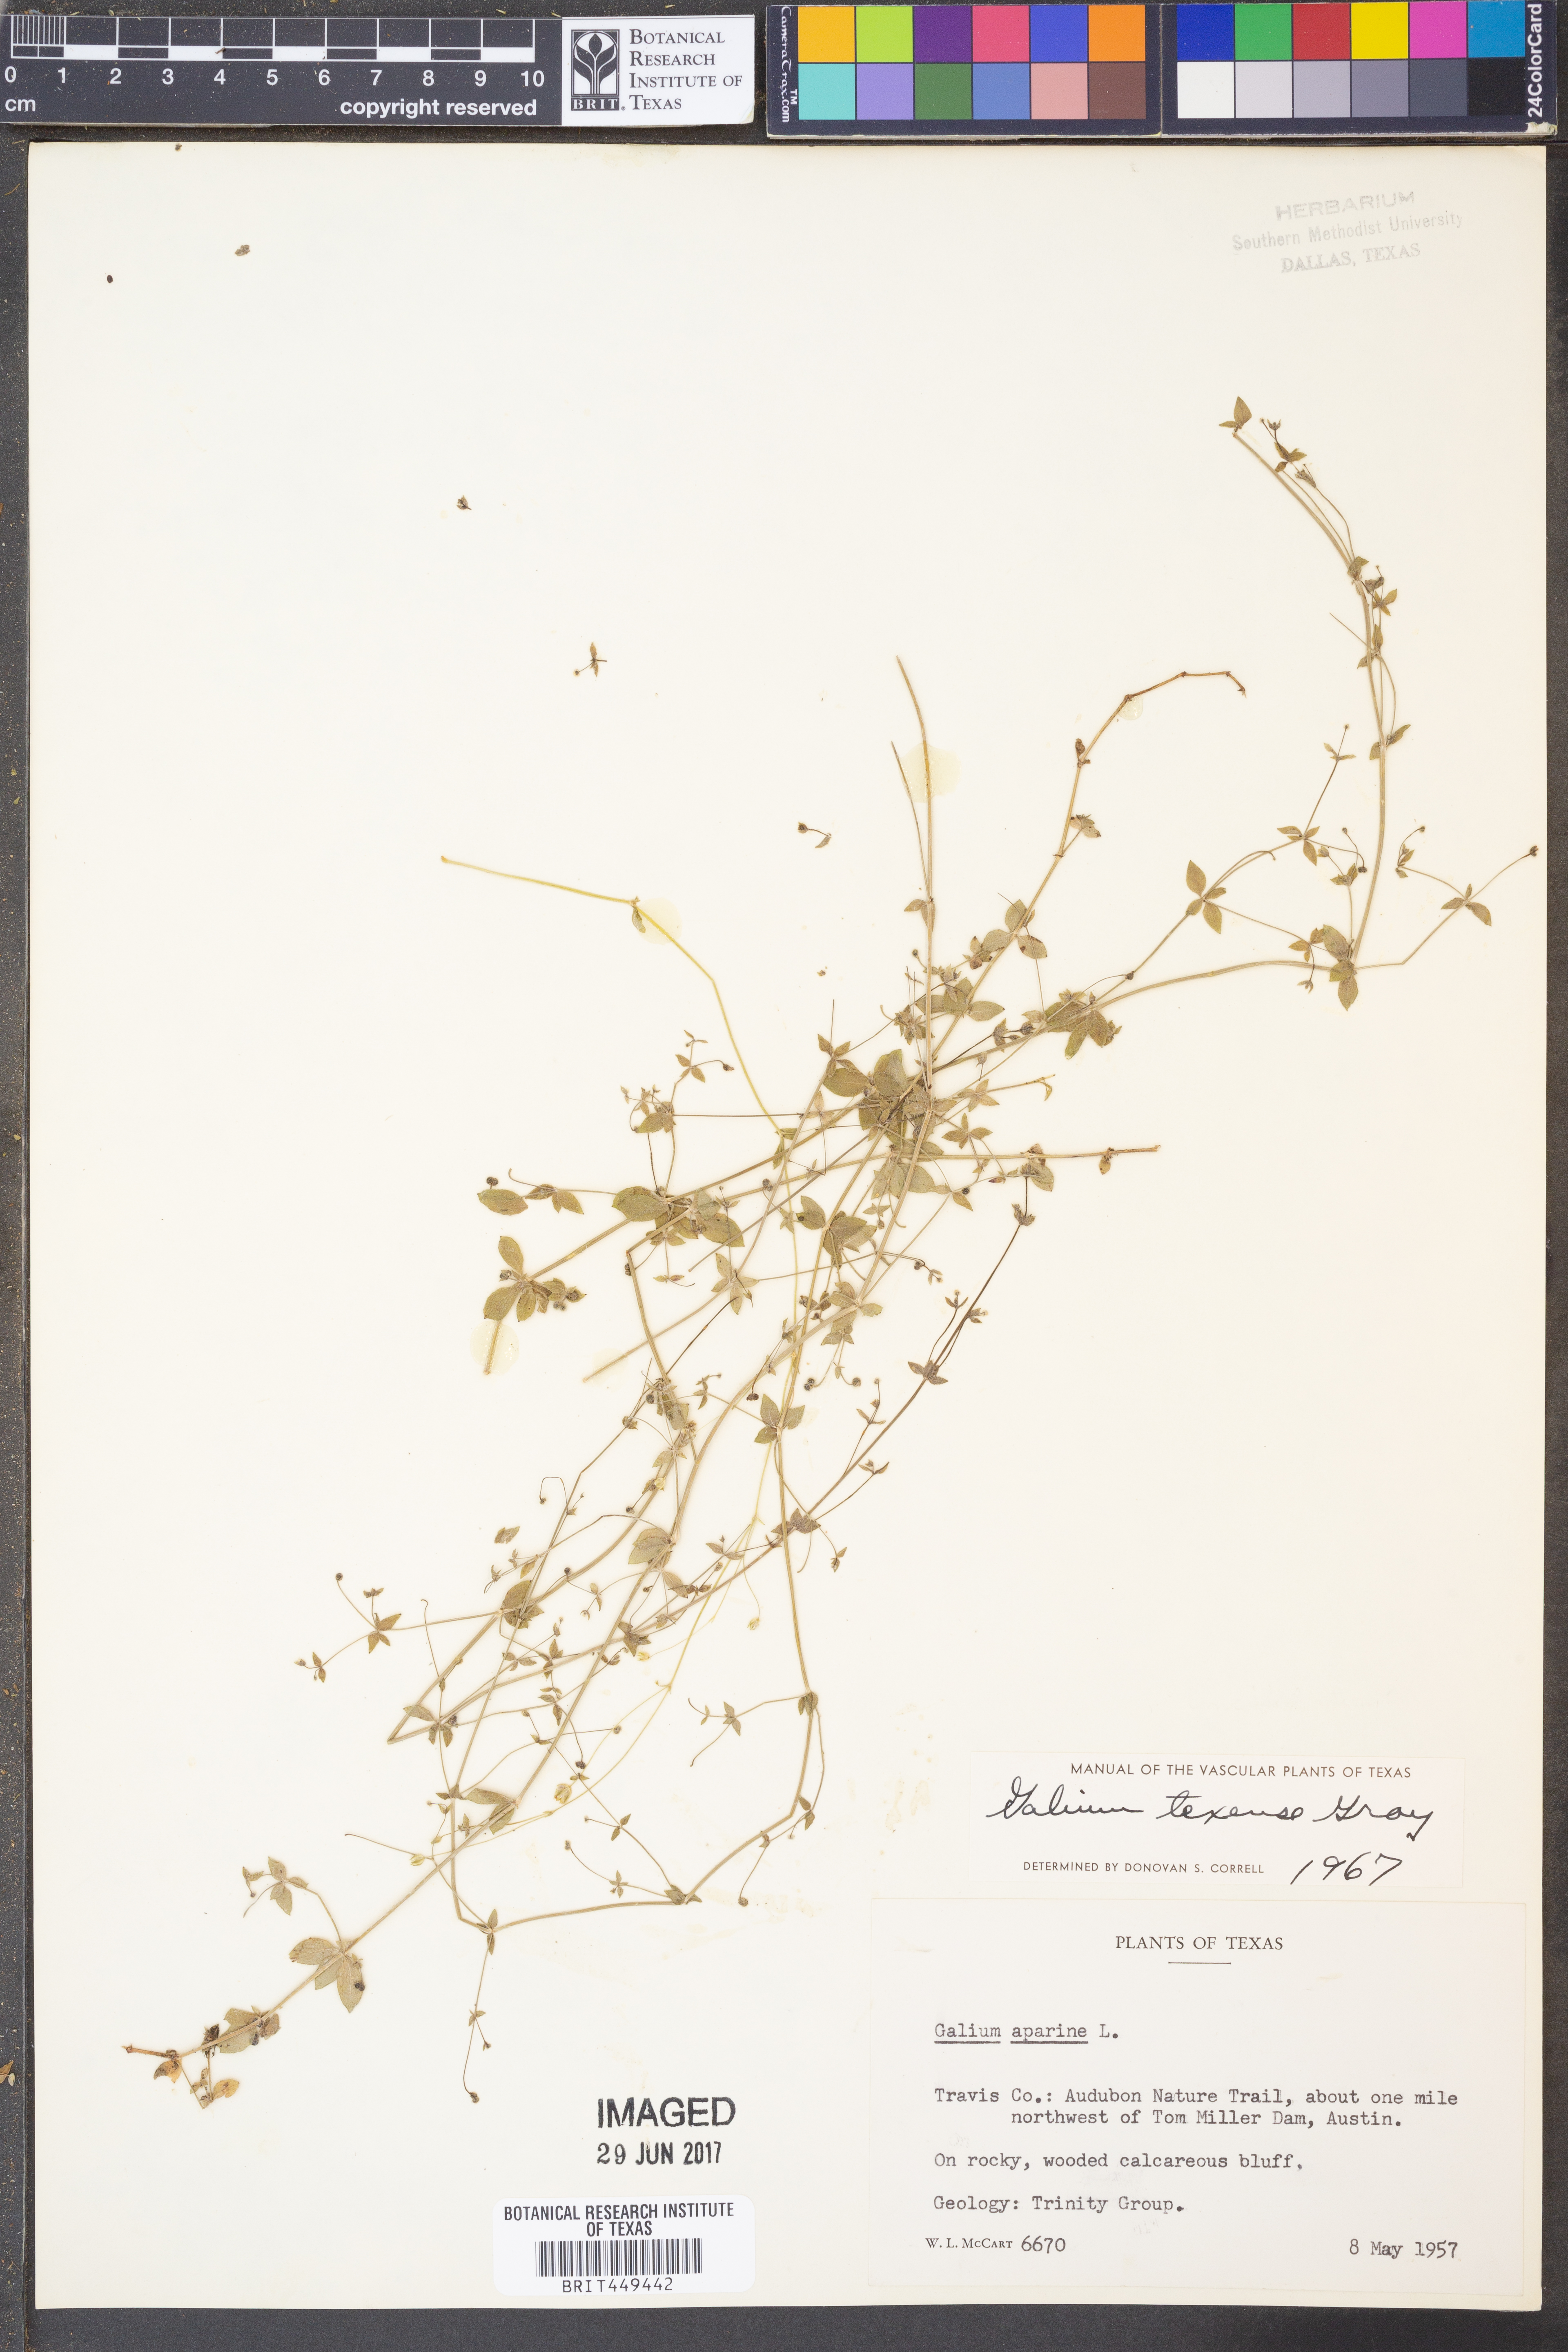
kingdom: Plantae
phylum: Tracheophyta
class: Magnoliopsida
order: Gentianales
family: Rubiaceae
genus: Galium
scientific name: Galium texense
